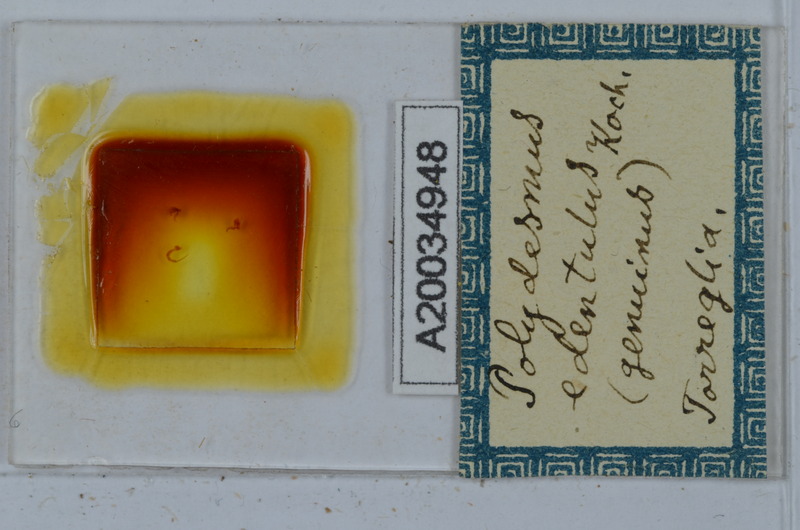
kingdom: Animalia
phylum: Arthropoda
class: Diplopoda
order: Polydesmida
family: Polydesmidae
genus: Polydesmus
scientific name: Polydesmus edentulus
